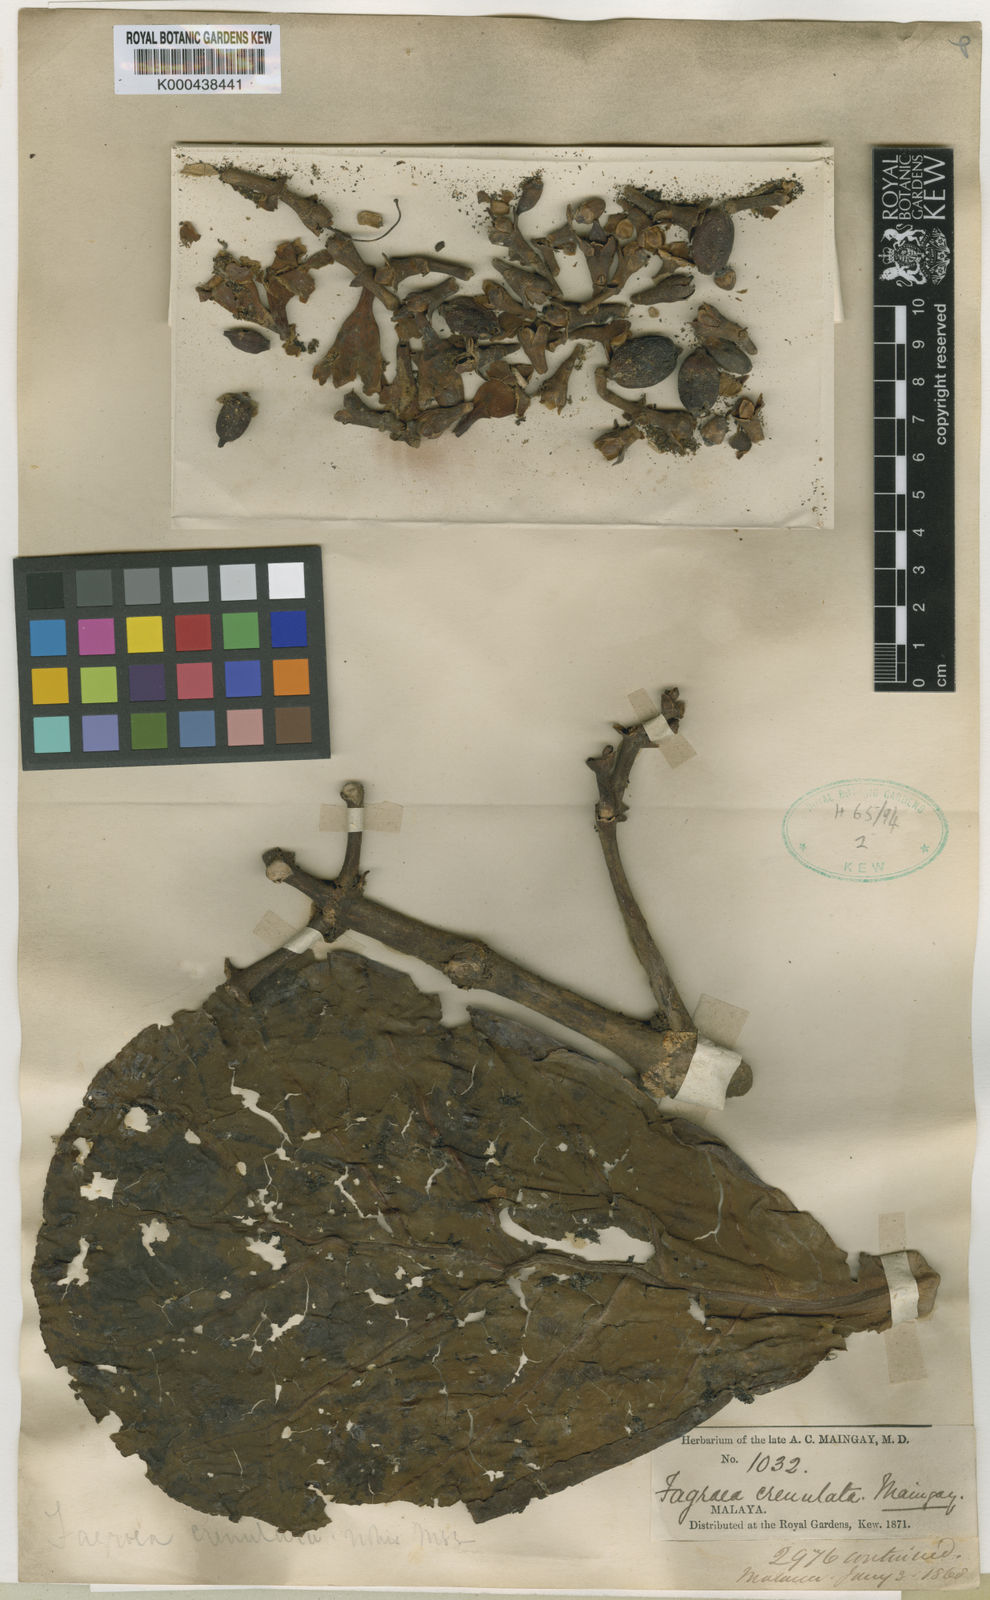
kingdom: Plantae
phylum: Tracheophyta
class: Magnoliopsida
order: Gentianales
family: Gentianaceae
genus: Limahlania
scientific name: Limahlania crenulata
